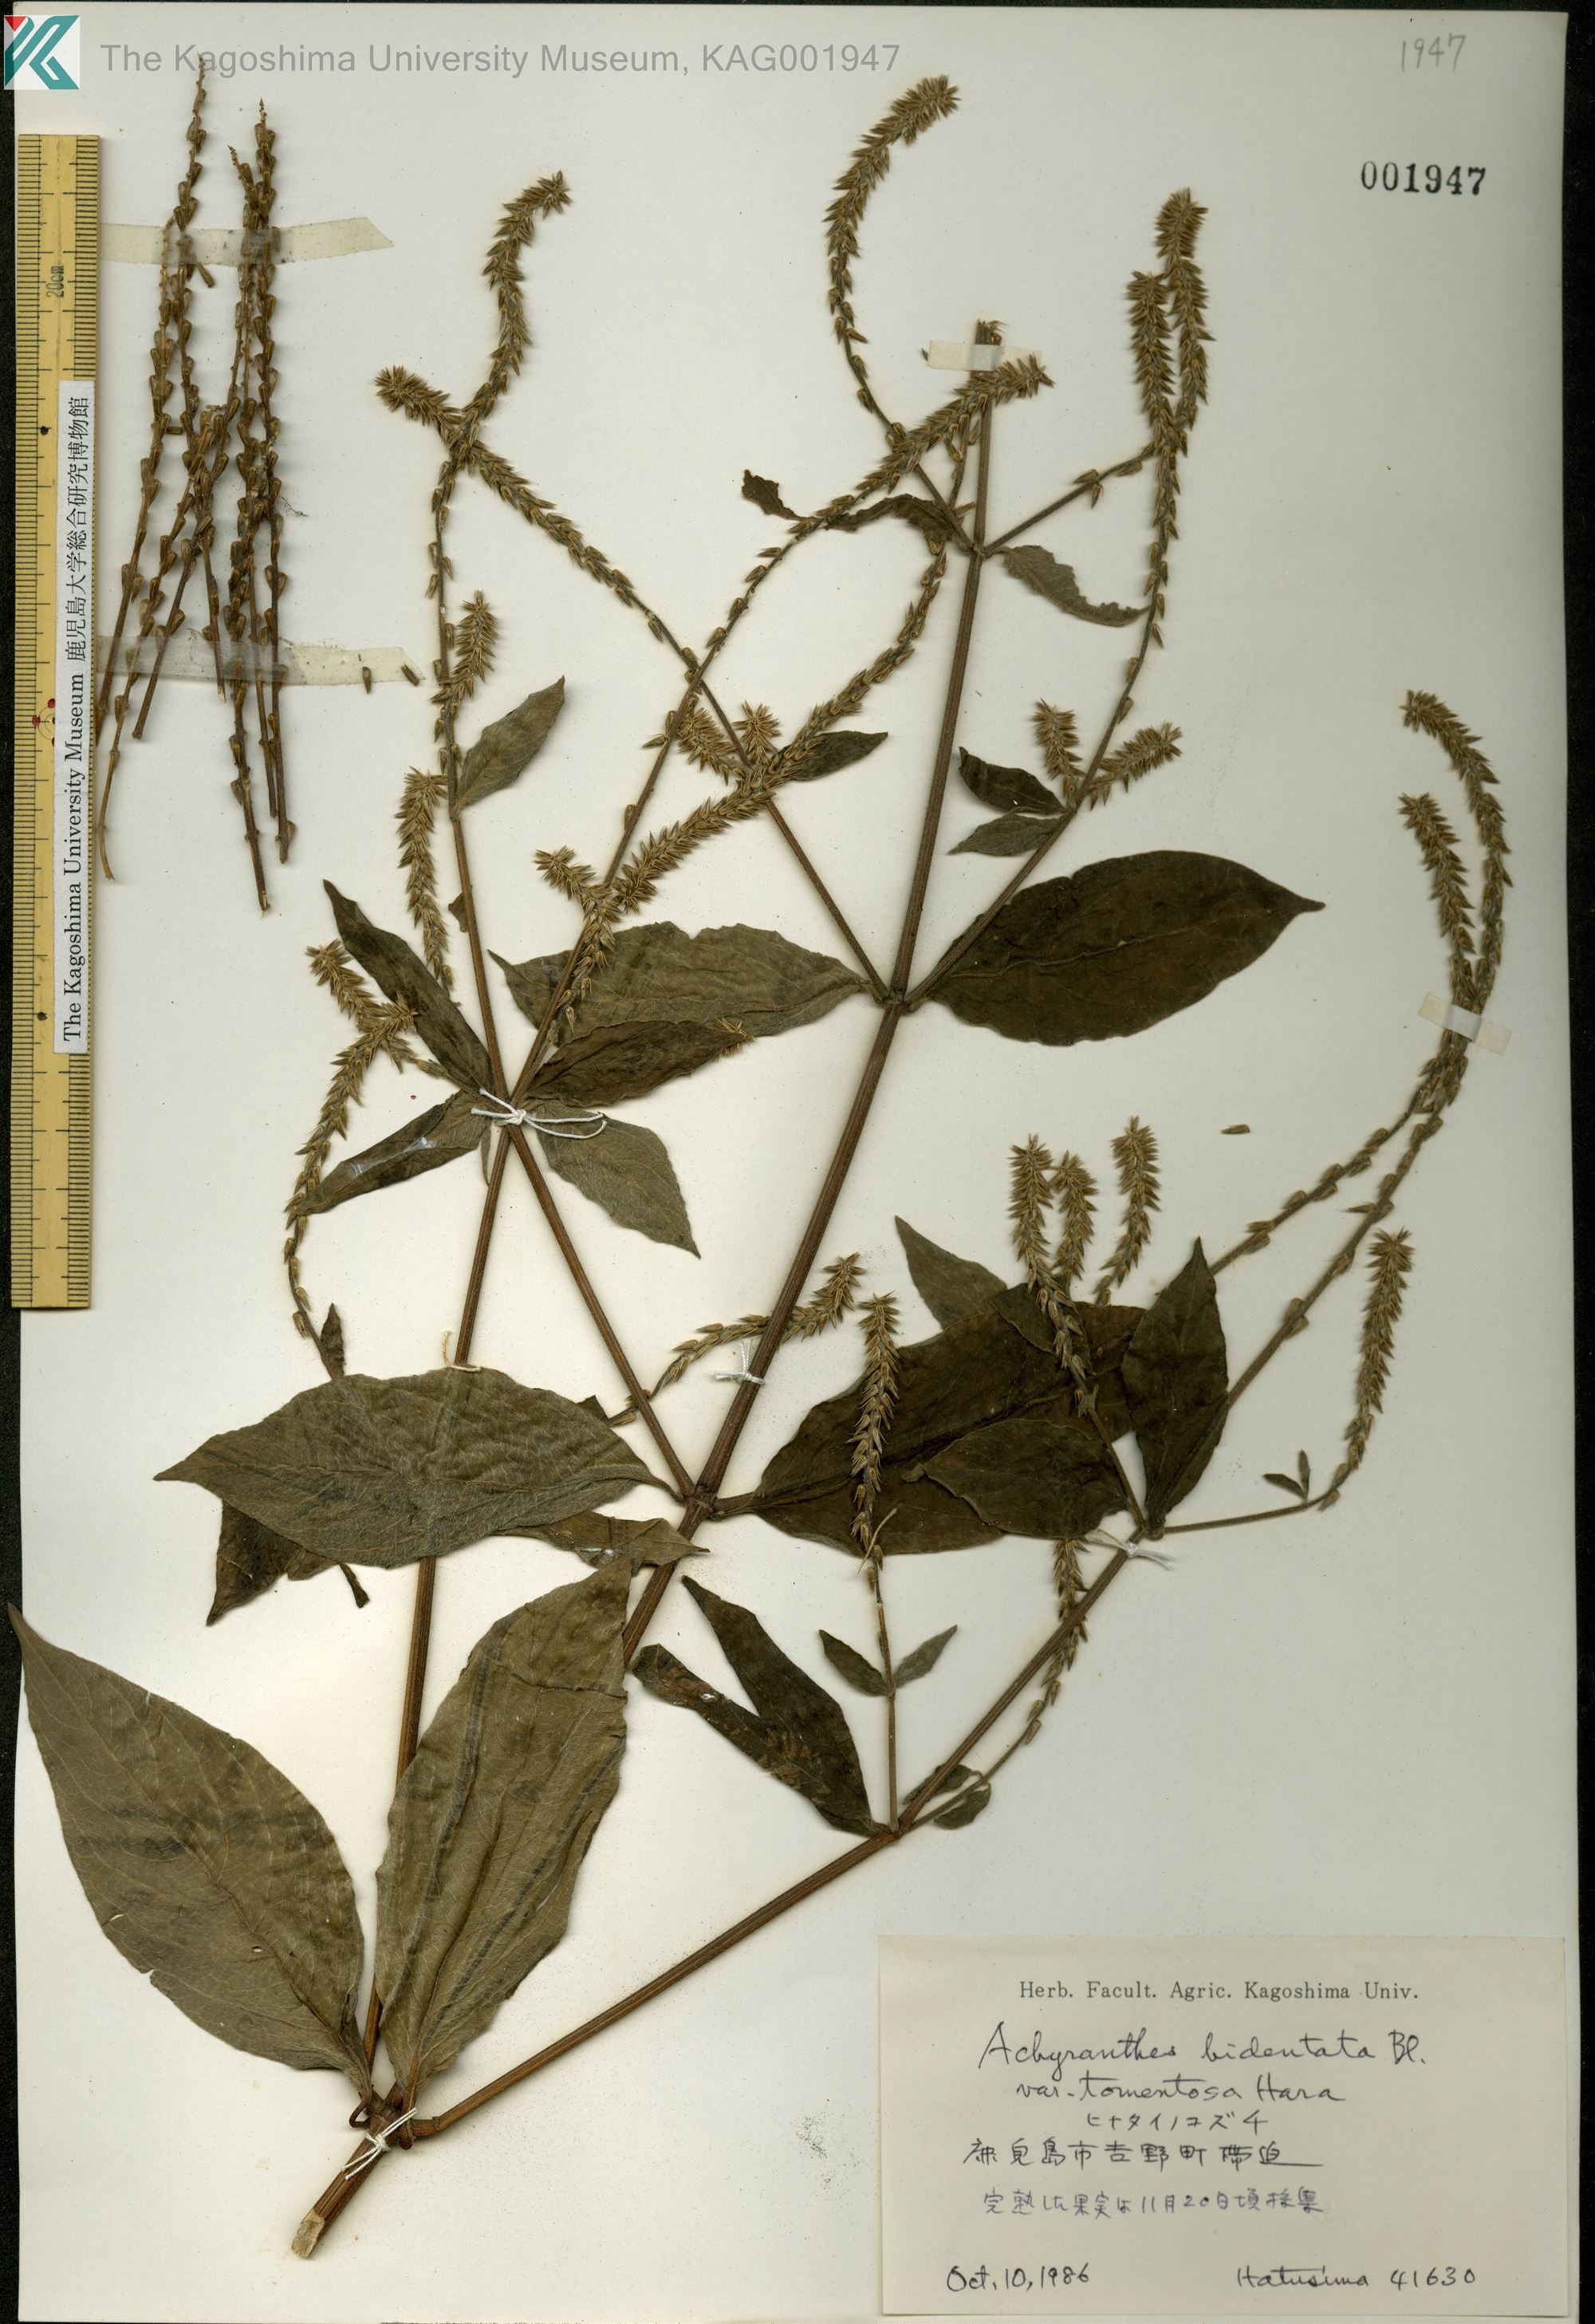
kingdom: Plantae
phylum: Tracheophyta
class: Magnoliopsida
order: Caryophyllales
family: Amaranthaceae
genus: Achyranthes
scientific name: Achyranthes bidentata
